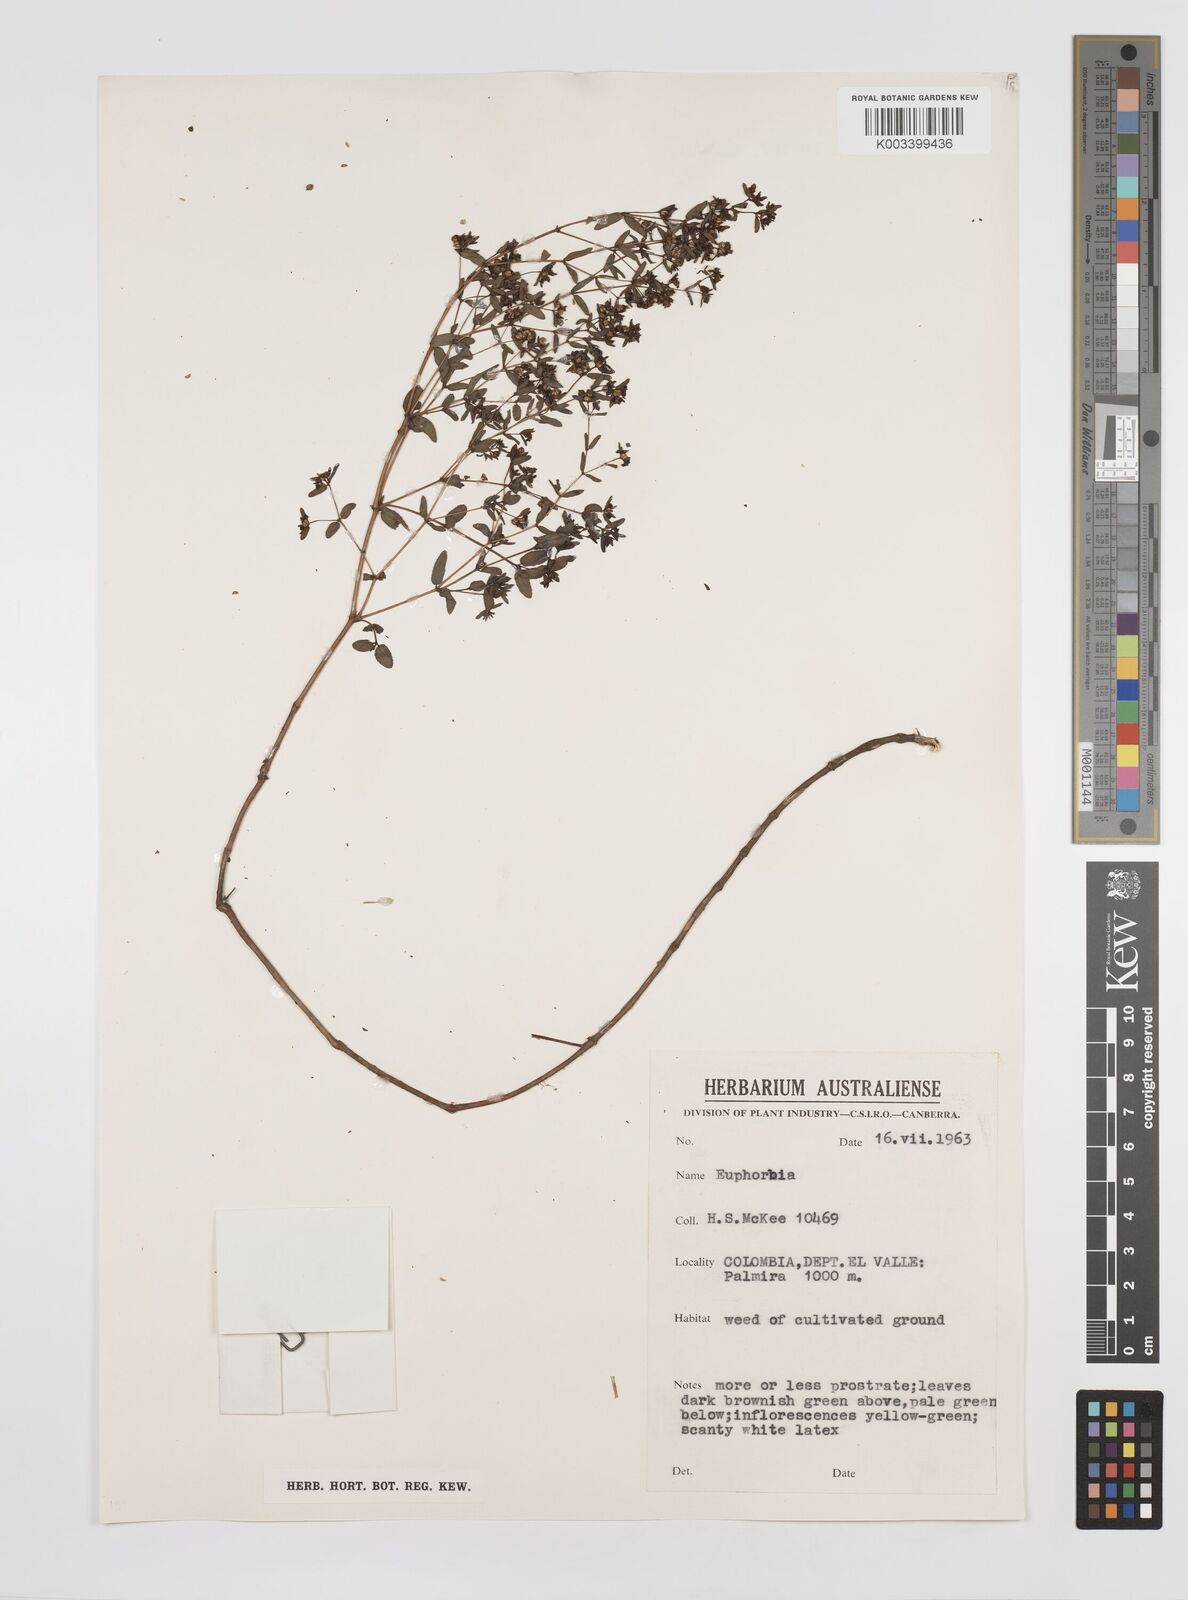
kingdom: Plantae
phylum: Tracheophyta
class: Magnoliopsida
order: Malpighiales
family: Euphorbiaceae
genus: Euphorbia
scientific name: Euphorbia
